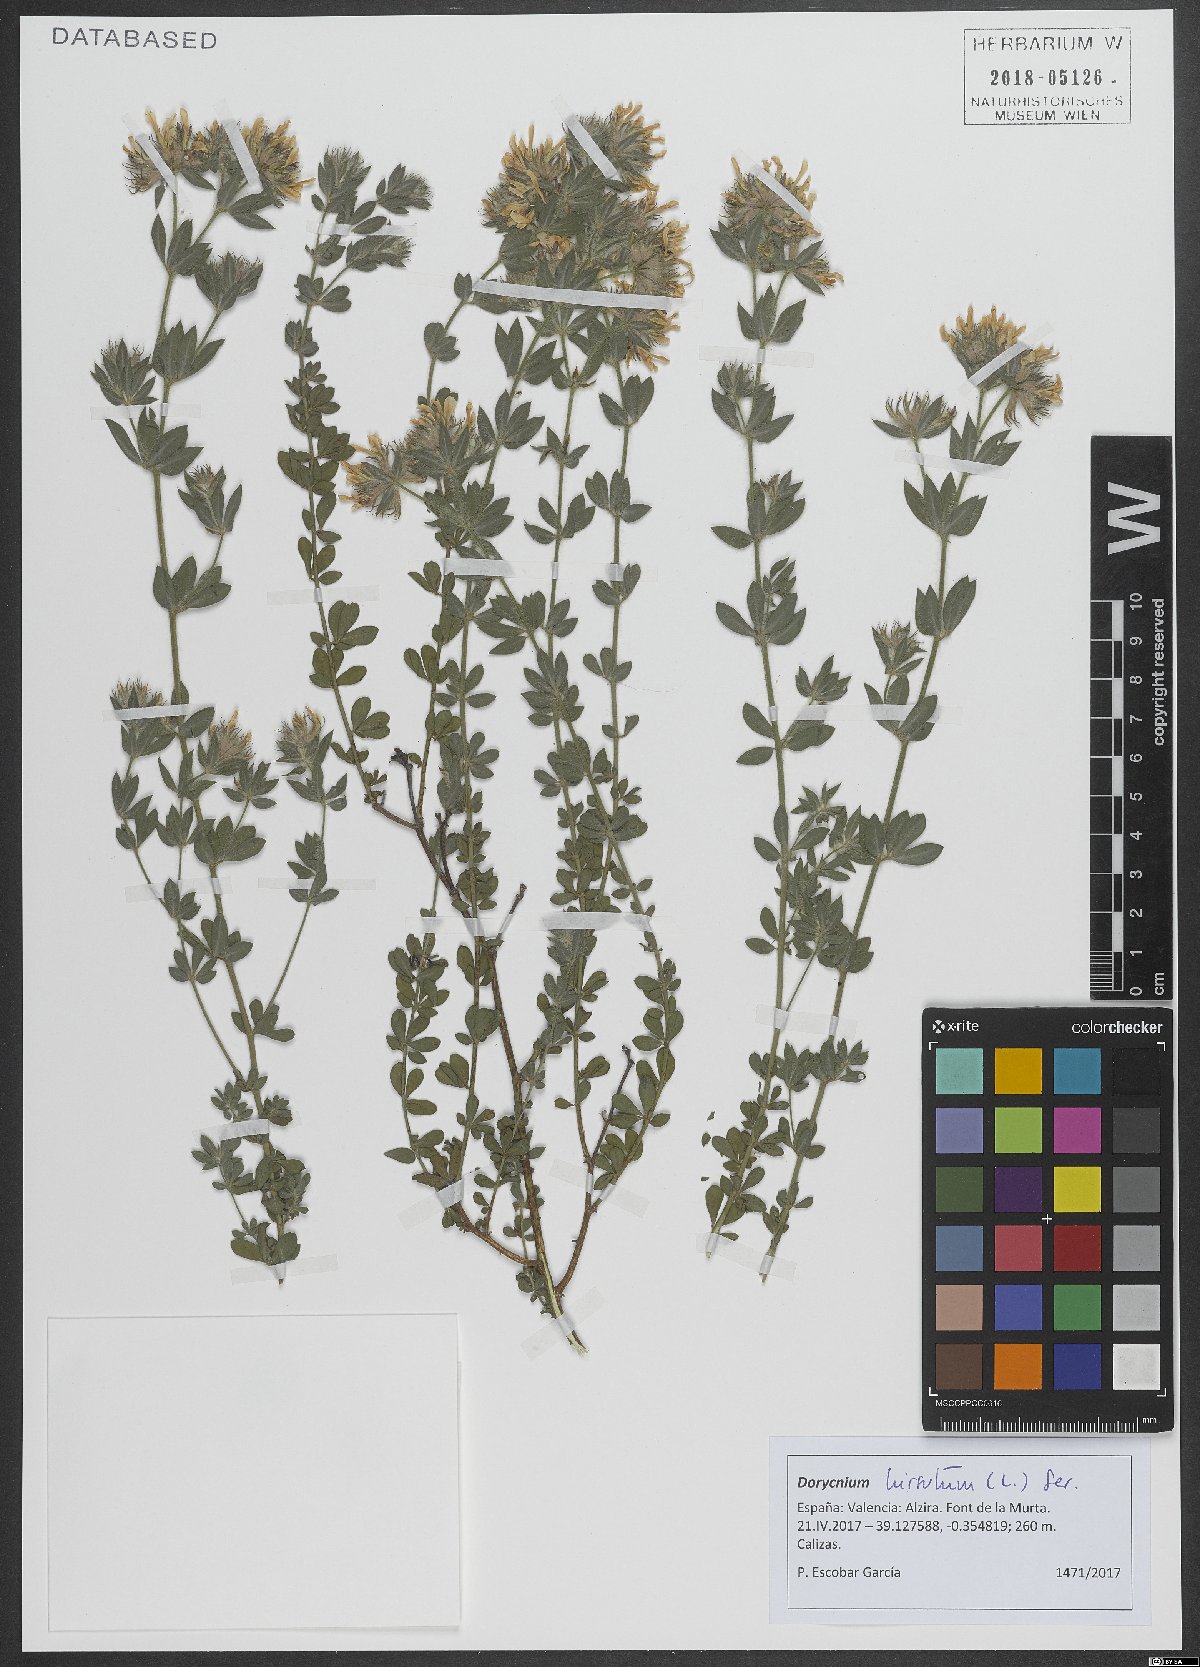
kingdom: Plantae
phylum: Tracheophyta
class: Magnoliopsida
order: Fabales
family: Fabaceae
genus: Lotus
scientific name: Lotus hirsutus
